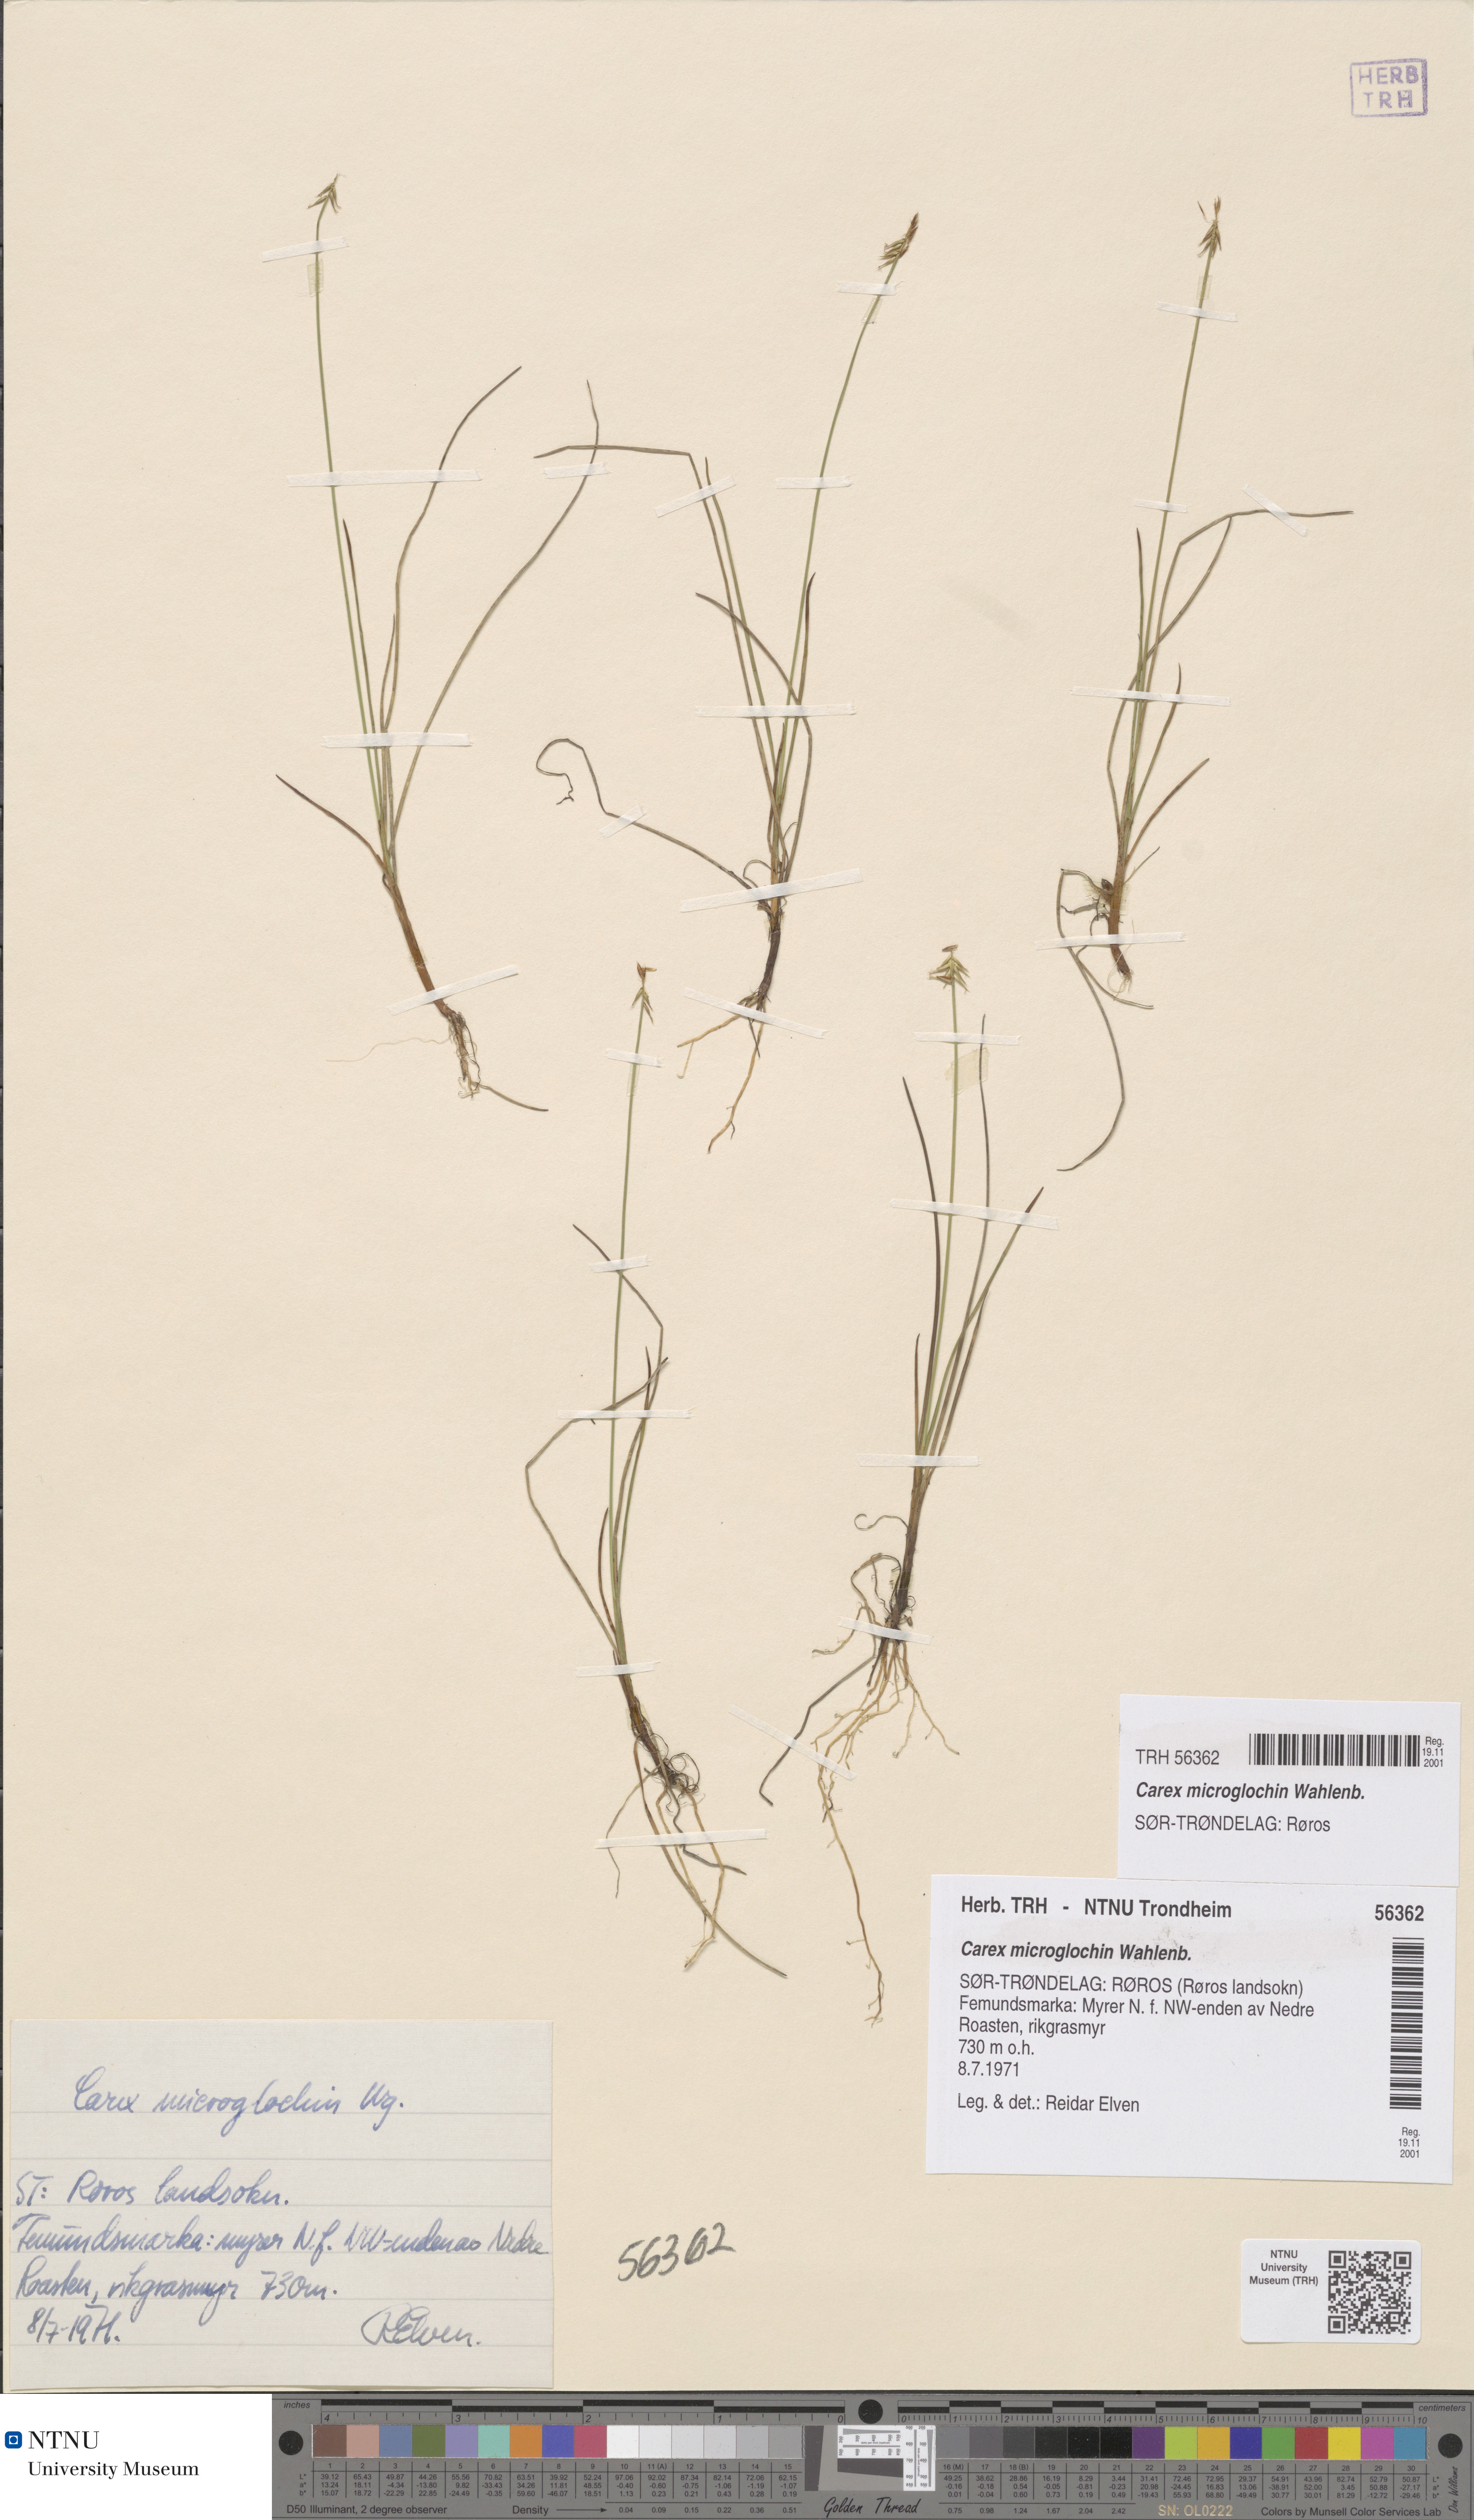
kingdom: Plantae
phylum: Tracheophyta
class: Liliopsida
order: Poales
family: Cyperaceae
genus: Carex
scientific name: Carex microglochin
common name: Bristle sedge
